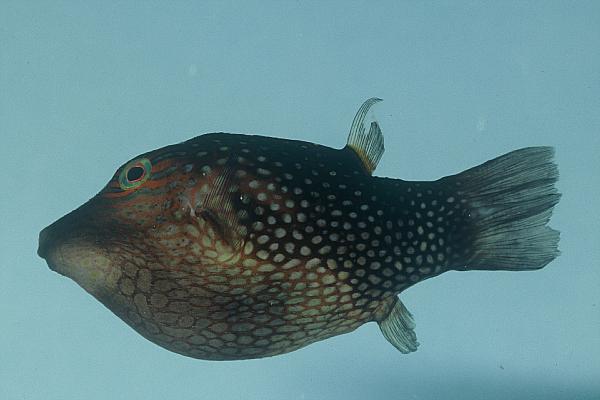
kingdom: Animalia
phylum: Chordata
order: Tetraodontiformes
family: Tetraodontidae
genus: Canthigaster
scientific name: Canthigaster janthinoptera
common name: Honeycomb toby
